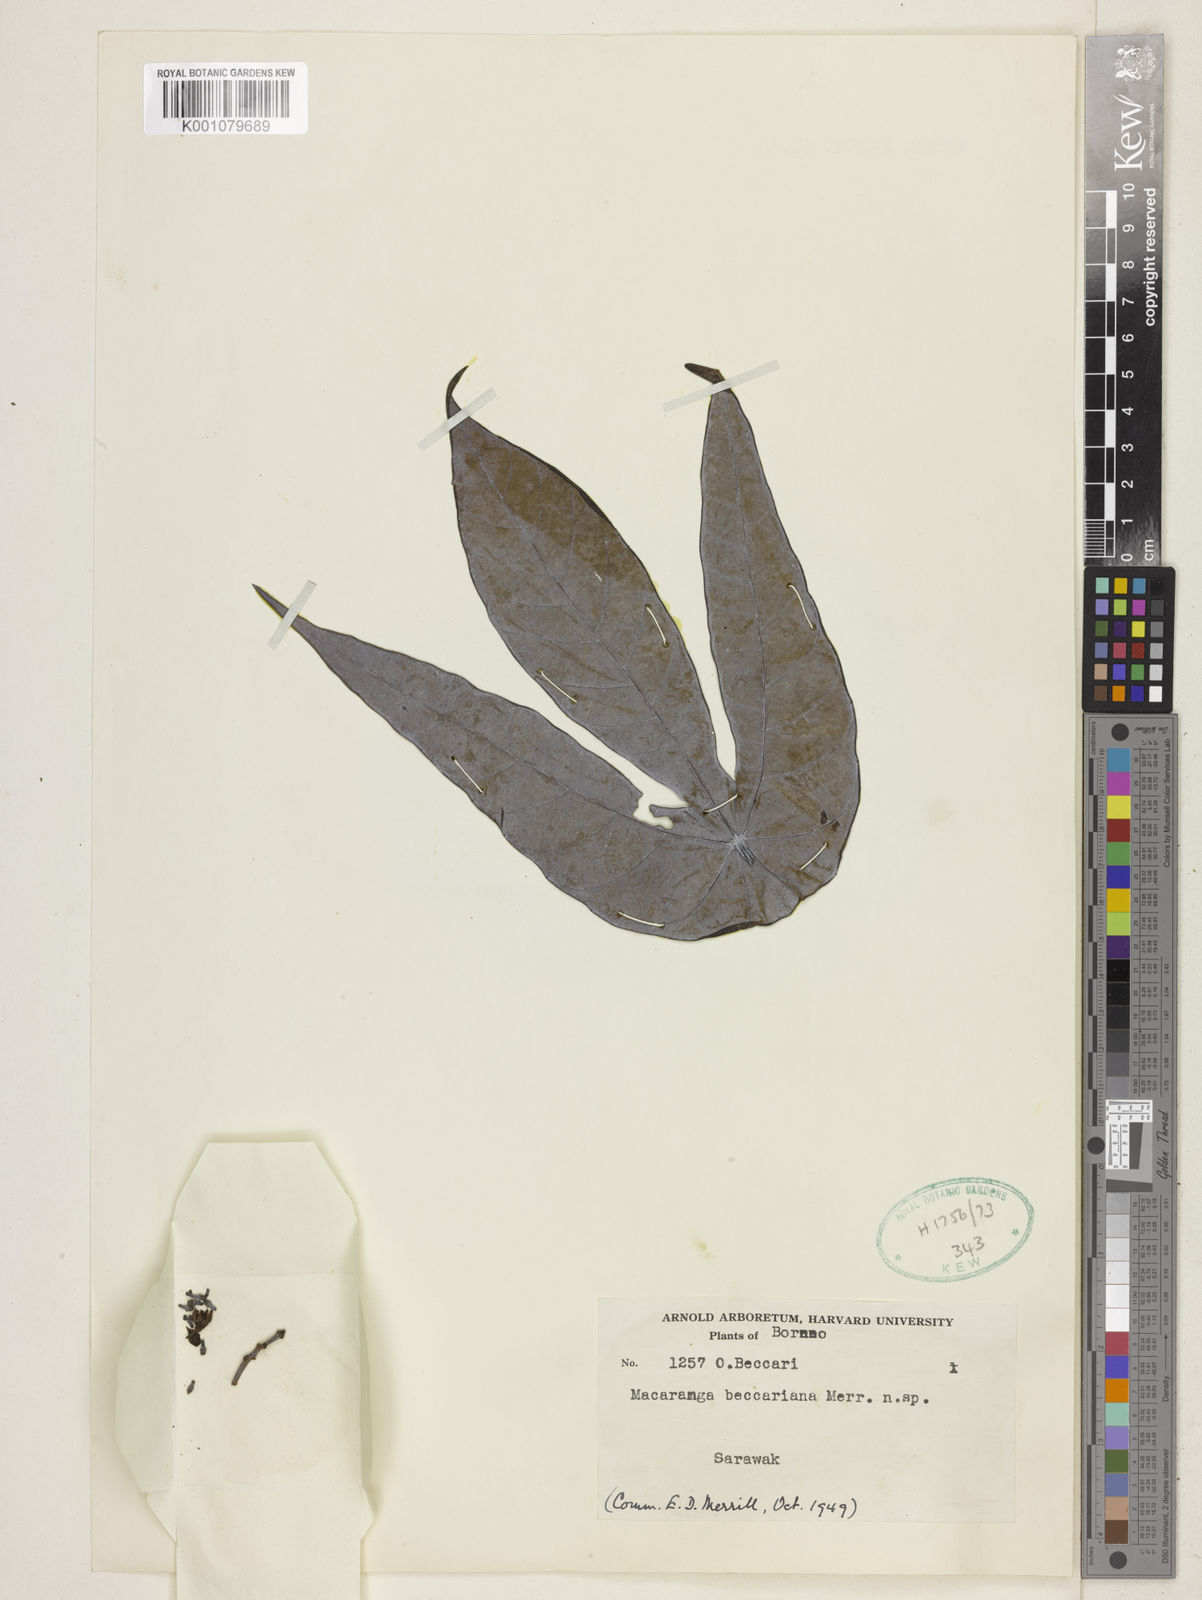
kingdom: Plantae
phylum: Tracheophyta
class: Magnoliopsida
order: Malpighiales
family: Euphorbiaceae
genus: Macaranga
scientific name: Macaranga beccariana
